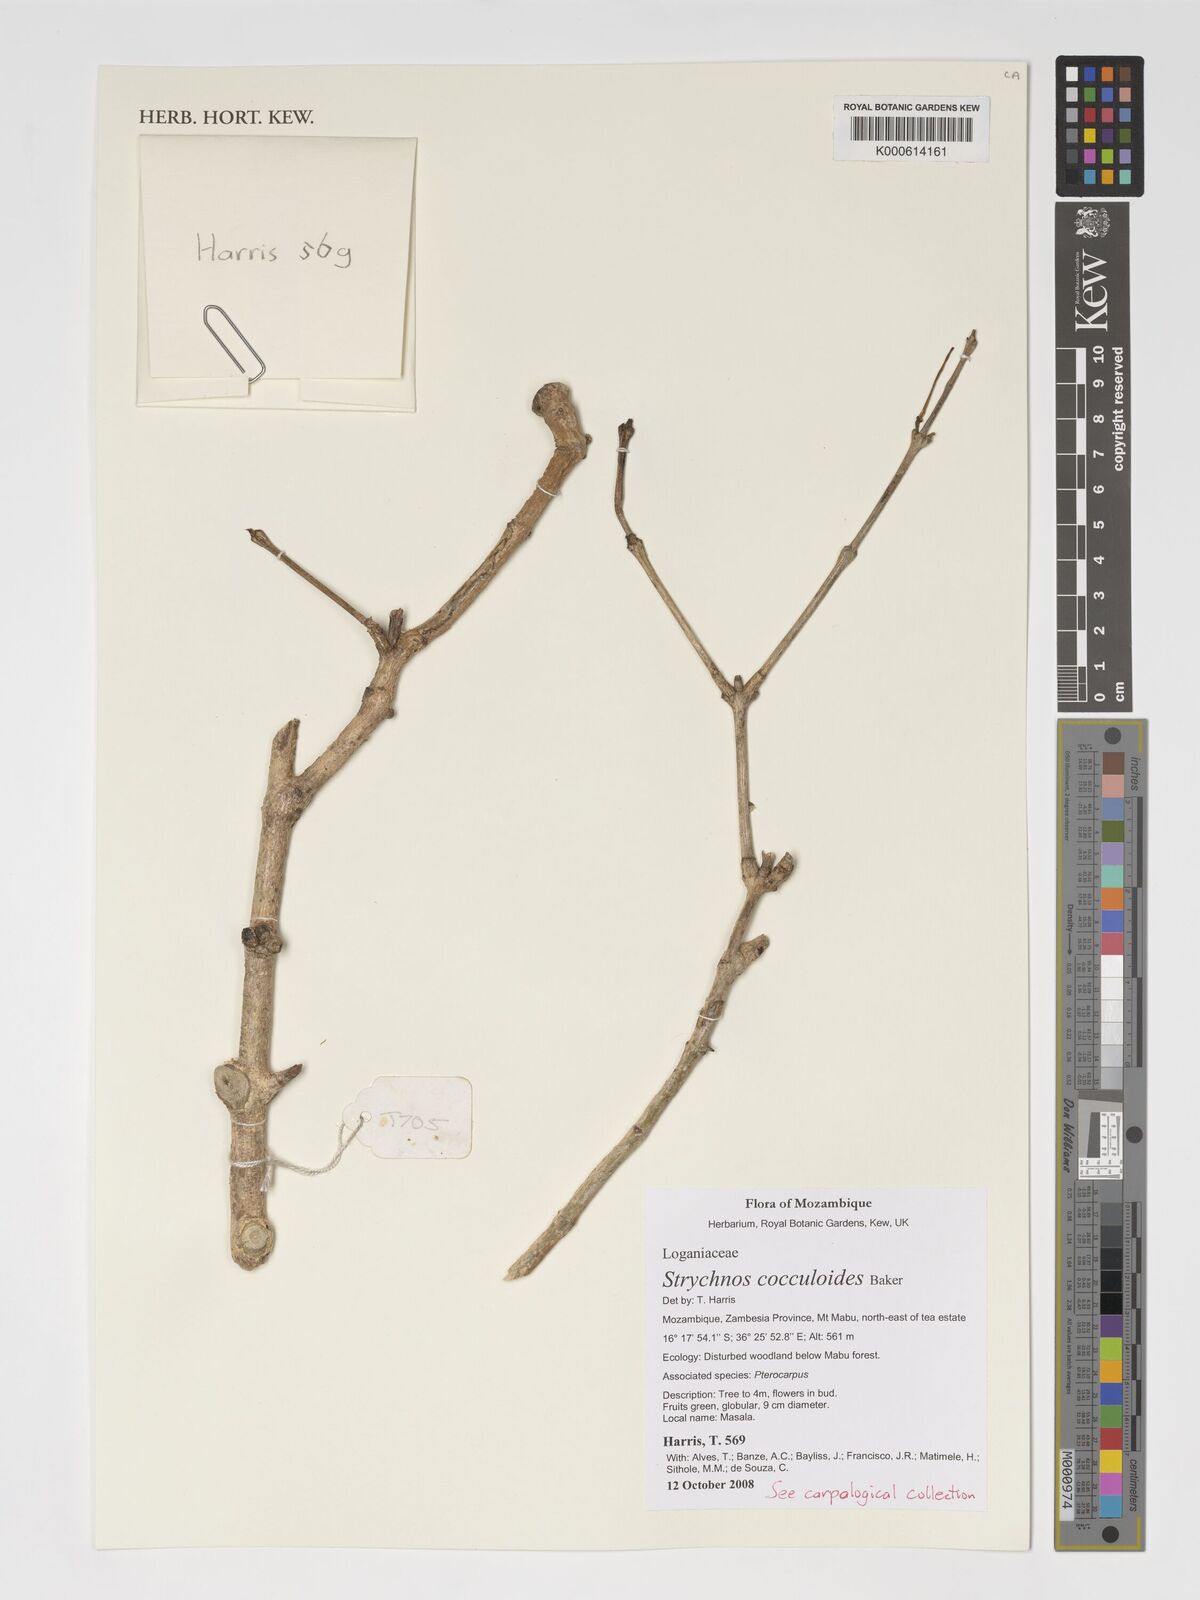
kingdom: Plantae
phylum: Tracheophyta
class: Magnoliopsida
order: Gentianales
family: Loganiaceae
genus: Strychnos
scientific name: Strychnos cocculoides
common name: Corky-bark monkey-orange
